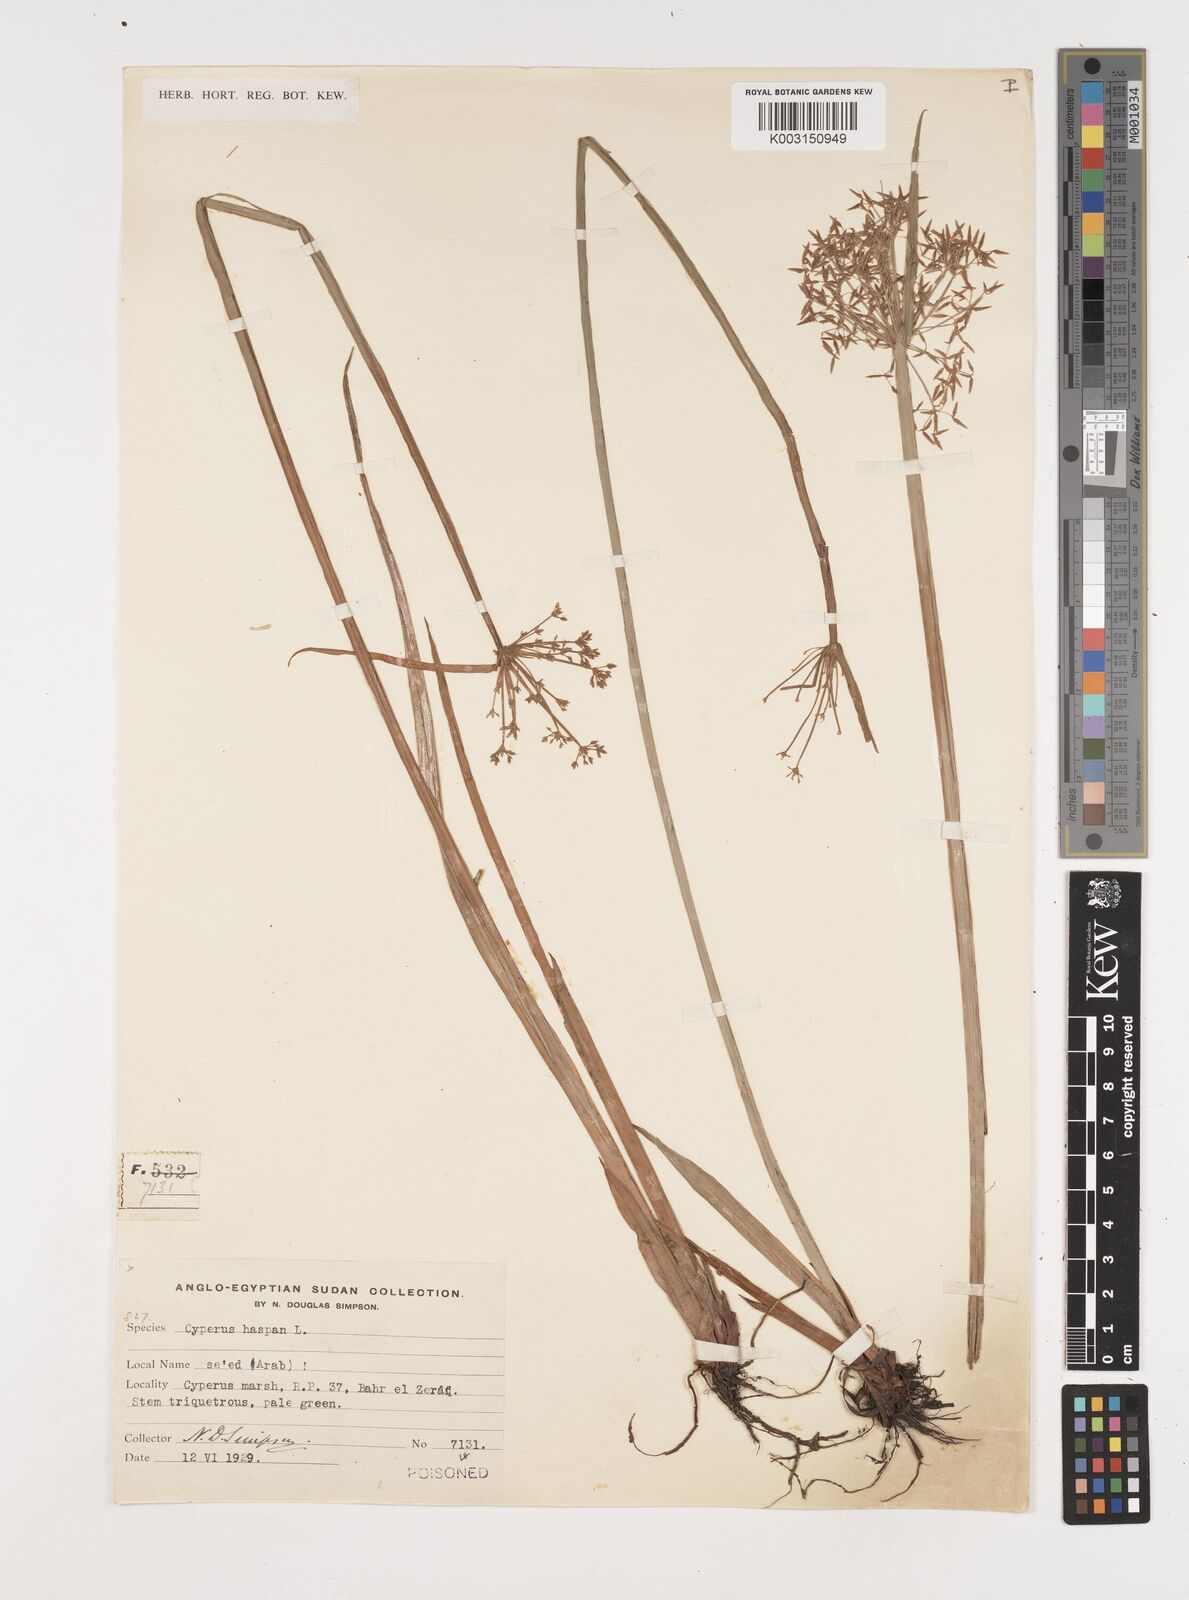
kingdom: Plantae
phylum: Tracheophyta
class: Liliopsida
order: Poales
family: Cyperaceae
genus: Cyperus
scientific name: Cyperus haspan
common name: Haspan flatsedge
